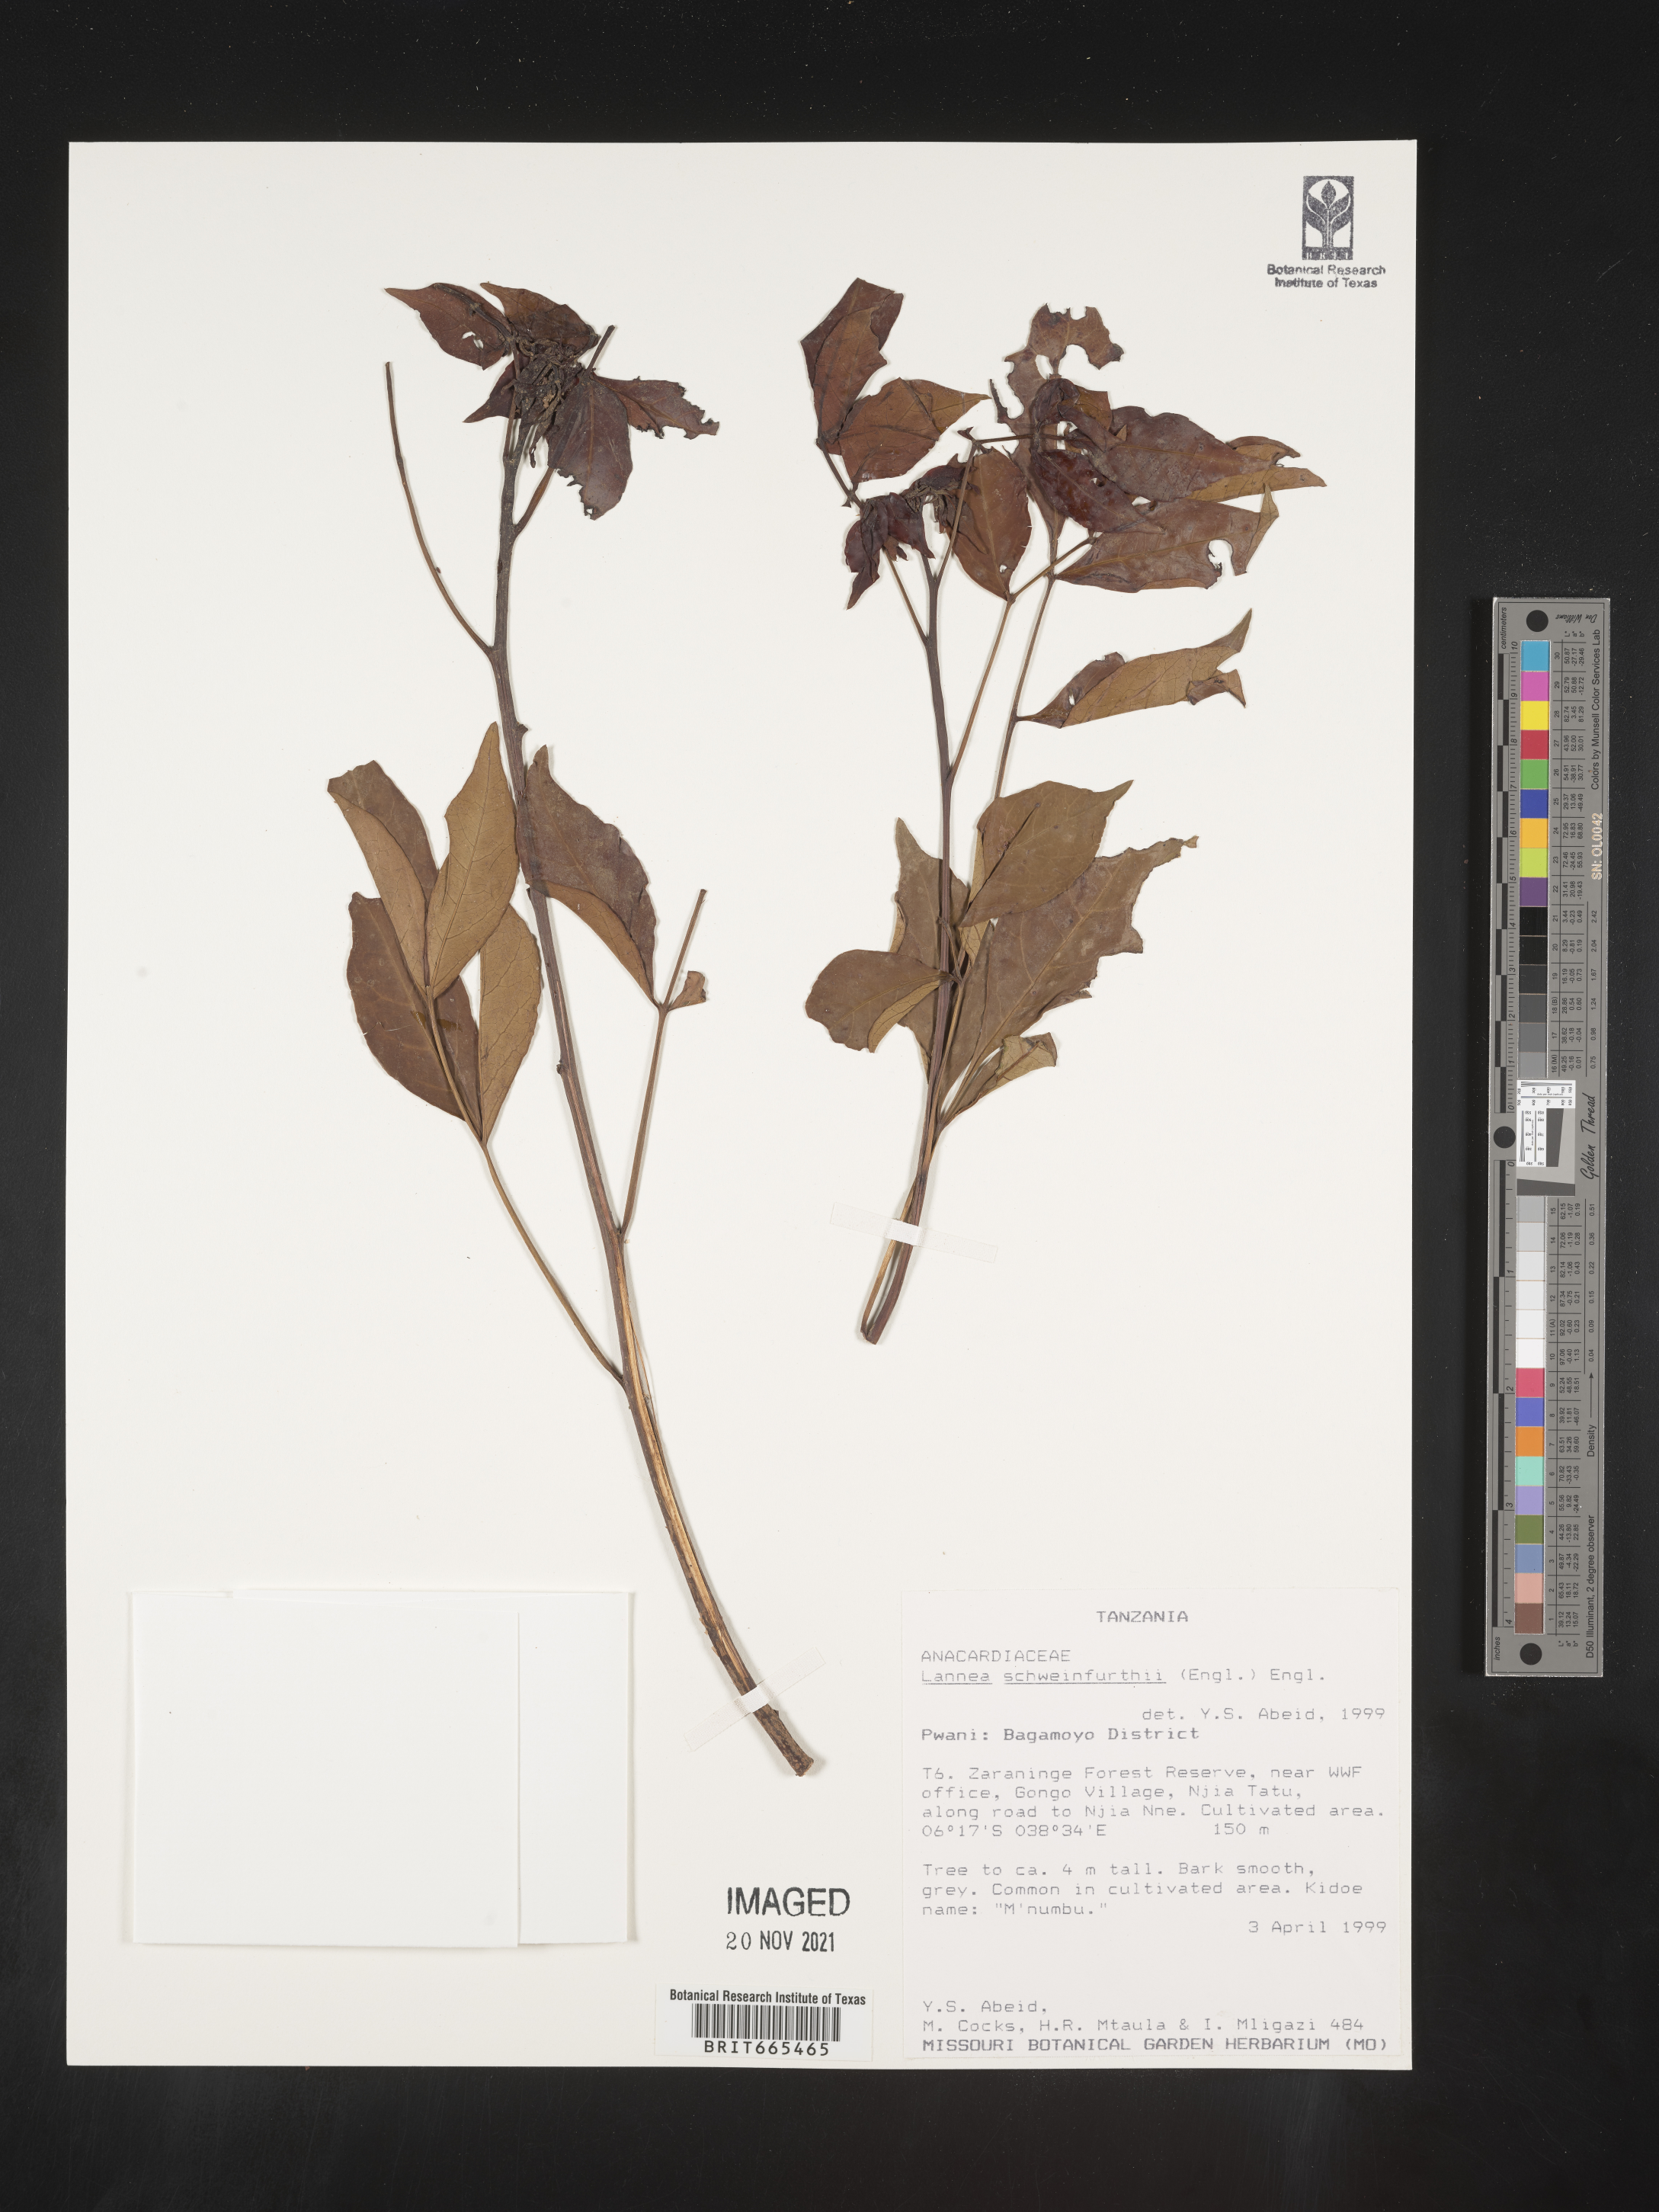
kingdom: Plantae
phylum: Tracheophyta
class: Magnoliopsida
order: Sapindales
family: Anacardiaceae
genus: Lannea
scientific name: Lannea
